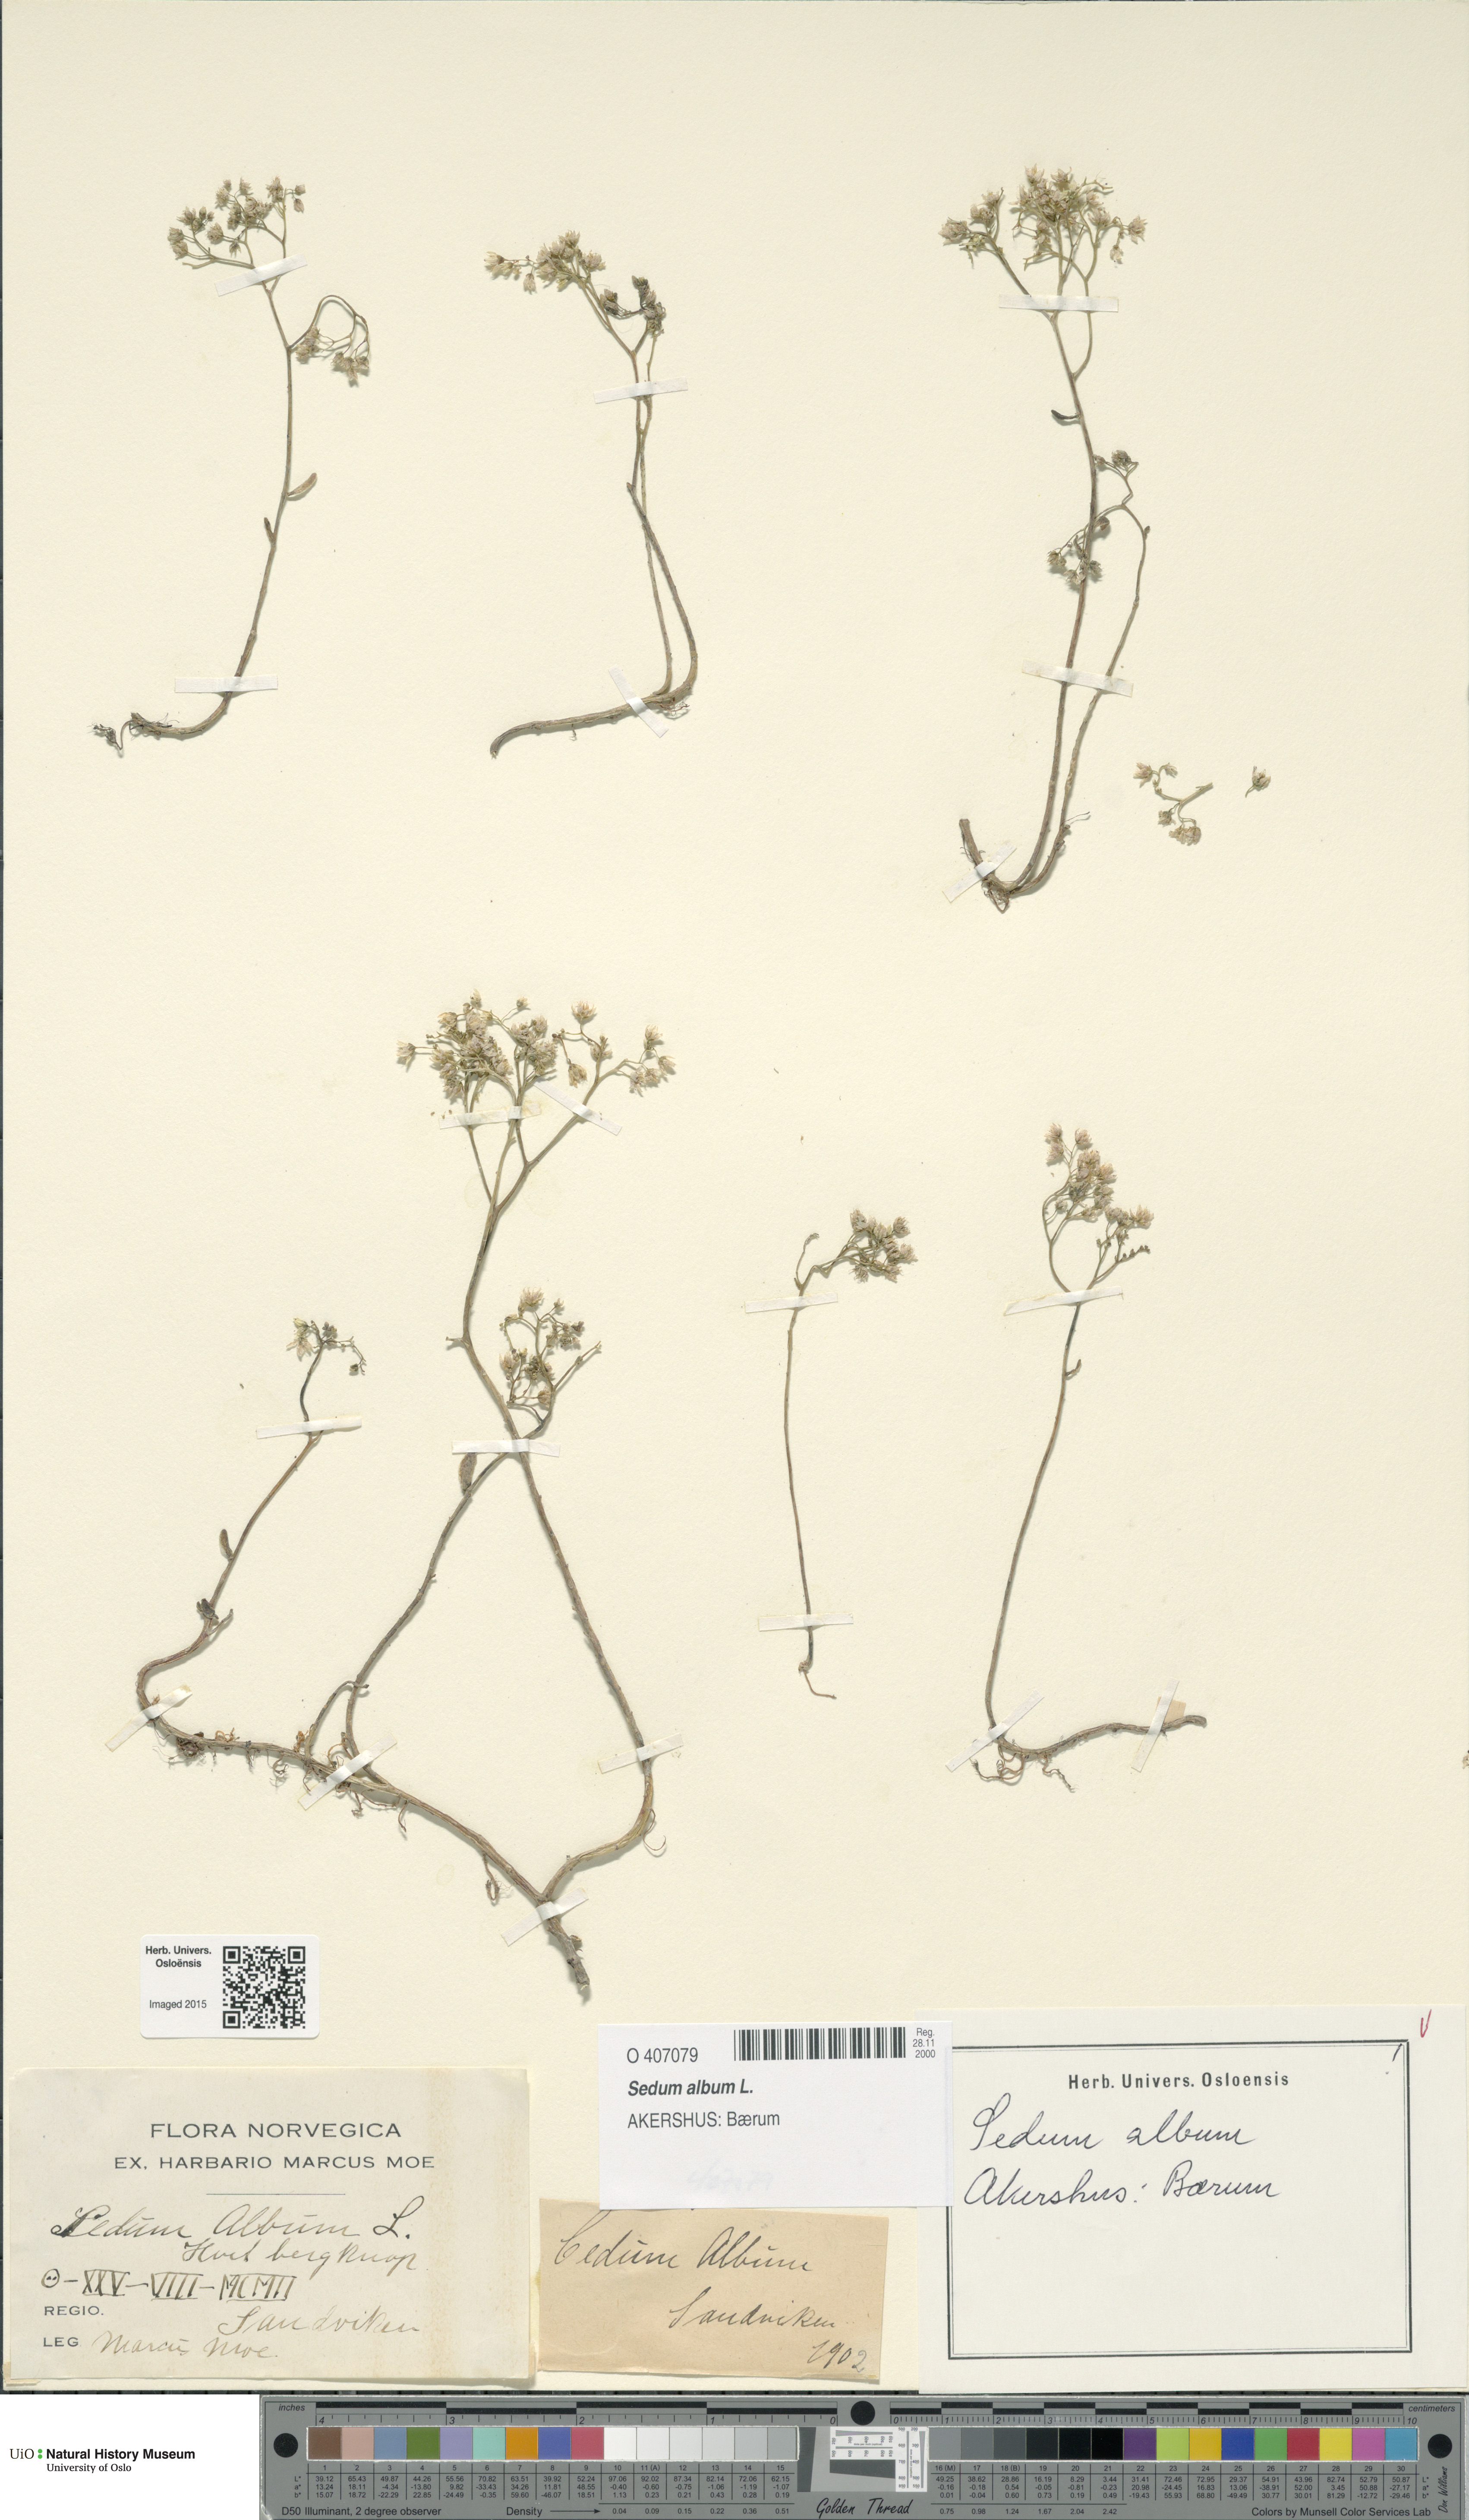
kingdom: Plantae
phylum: Tracheophyta
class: Magnoliopsida
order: Saxifragales
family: Crassulaceae
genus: Sedum
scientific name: Sedum album
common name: White stonecrop
